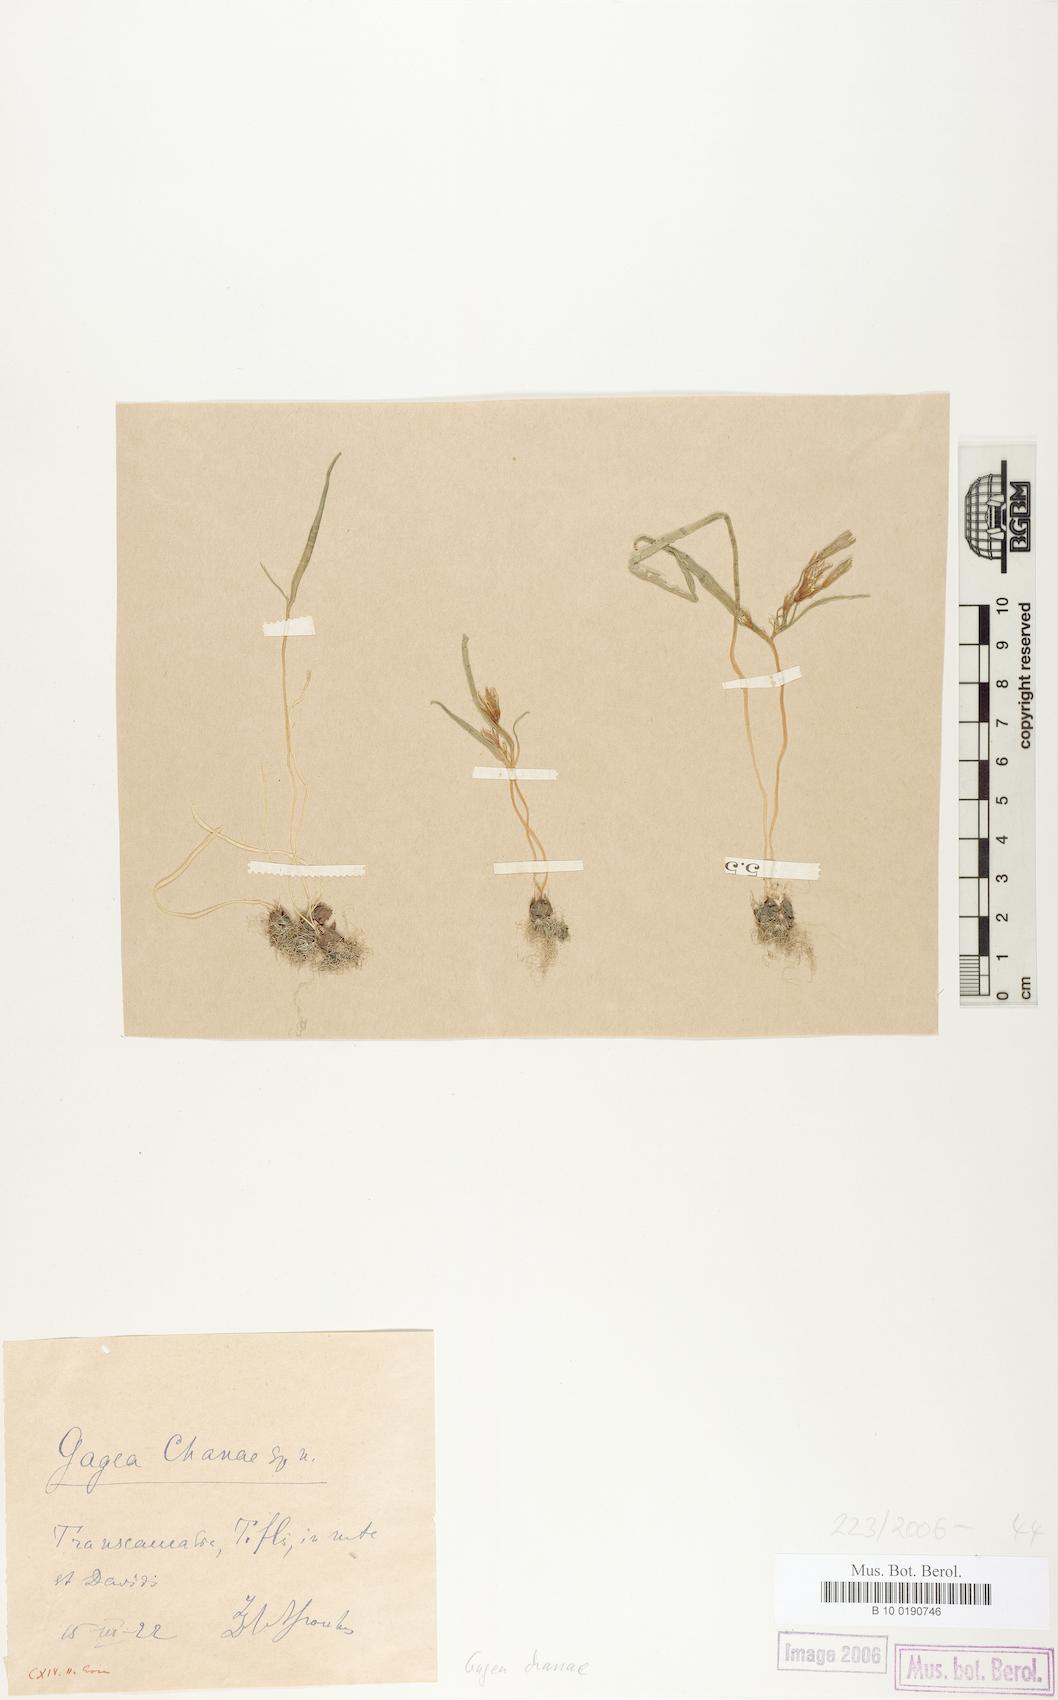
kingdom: Plantae
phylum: Tracheophyta
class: Liliopsida
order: Liliales
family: Liliaceae
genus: Gagea
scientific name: Gagea chanae
